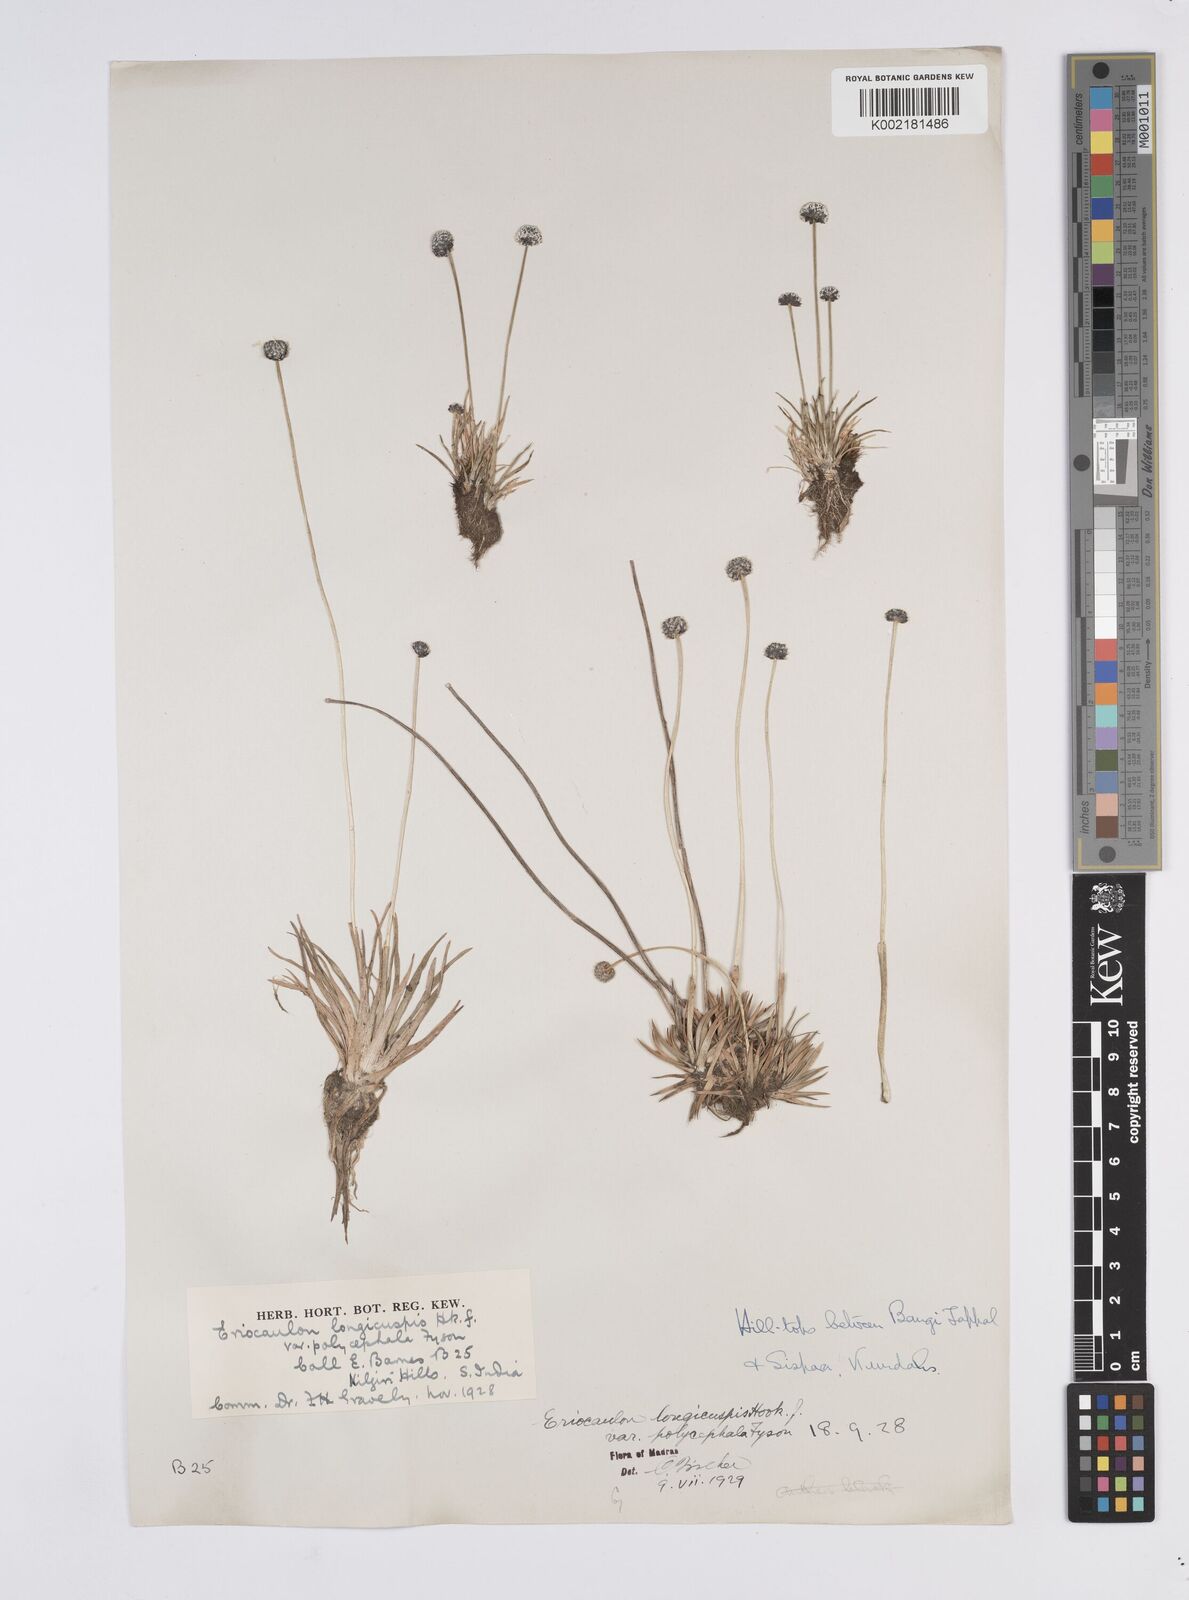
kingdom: Plantae
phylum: Tracheophyta
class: Liliopsida
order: Poales
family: Eriocaulaceae
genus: Eriocaulon
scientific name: Eriocaulon longicuspe
